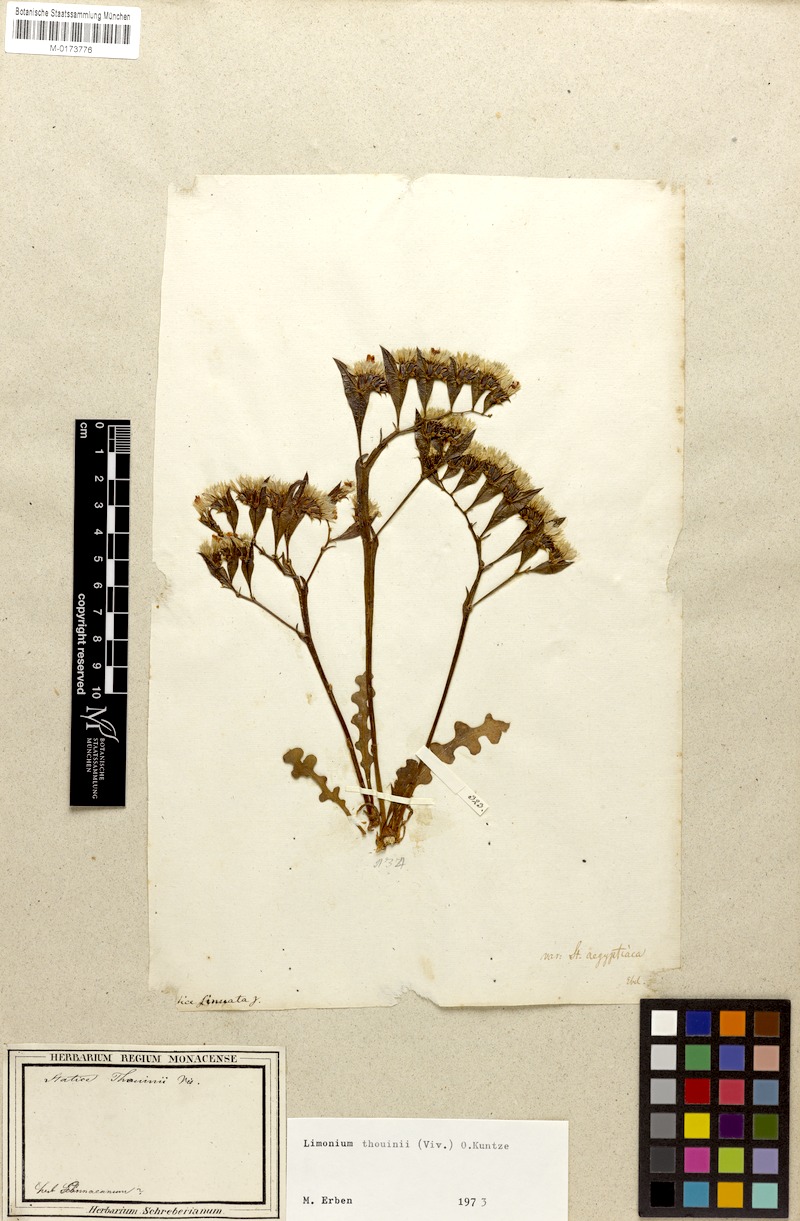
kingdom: Plantae
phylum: Tracheophyta
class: Magnoliopsida
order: Caryophyllales
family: Plumbaginaceae
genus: Limonium
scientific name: Limonium lobatum
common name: Winged sea-lavender
